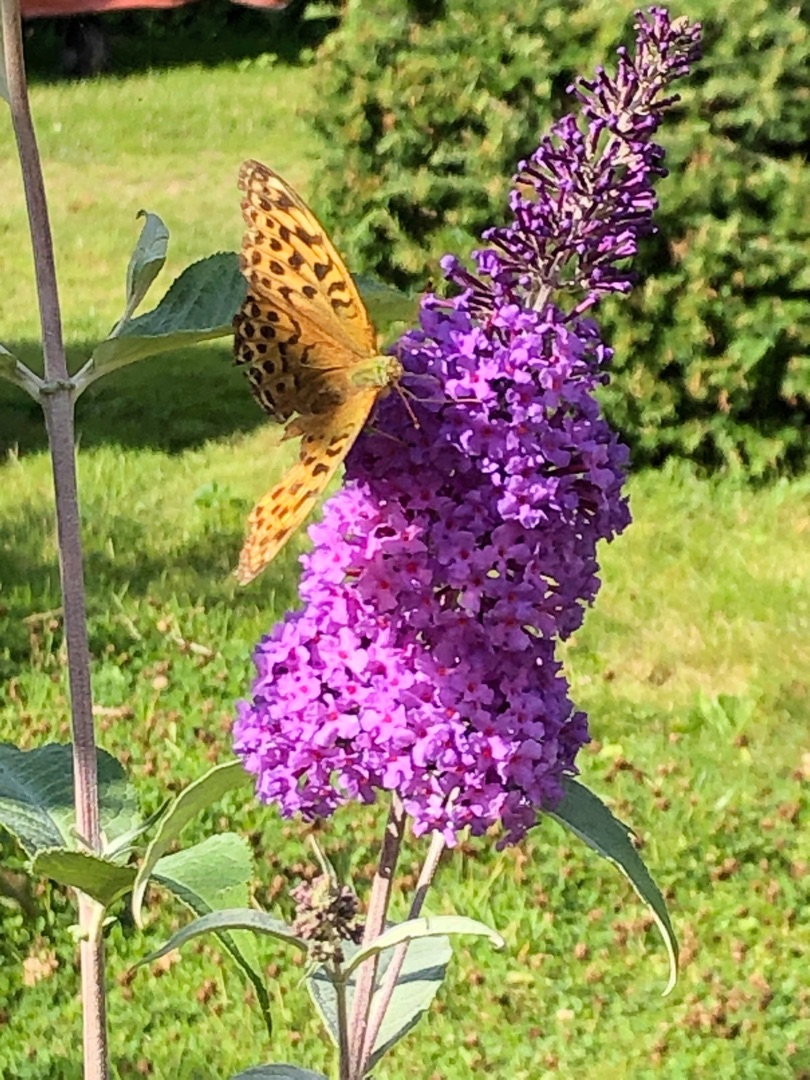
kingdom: Animalia
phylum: Arthropoda
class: Insecta
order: Lepidoptera
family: Nymphalidae
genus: Argynnis
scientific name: Argynnis paphia
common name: Kejserkåbe
